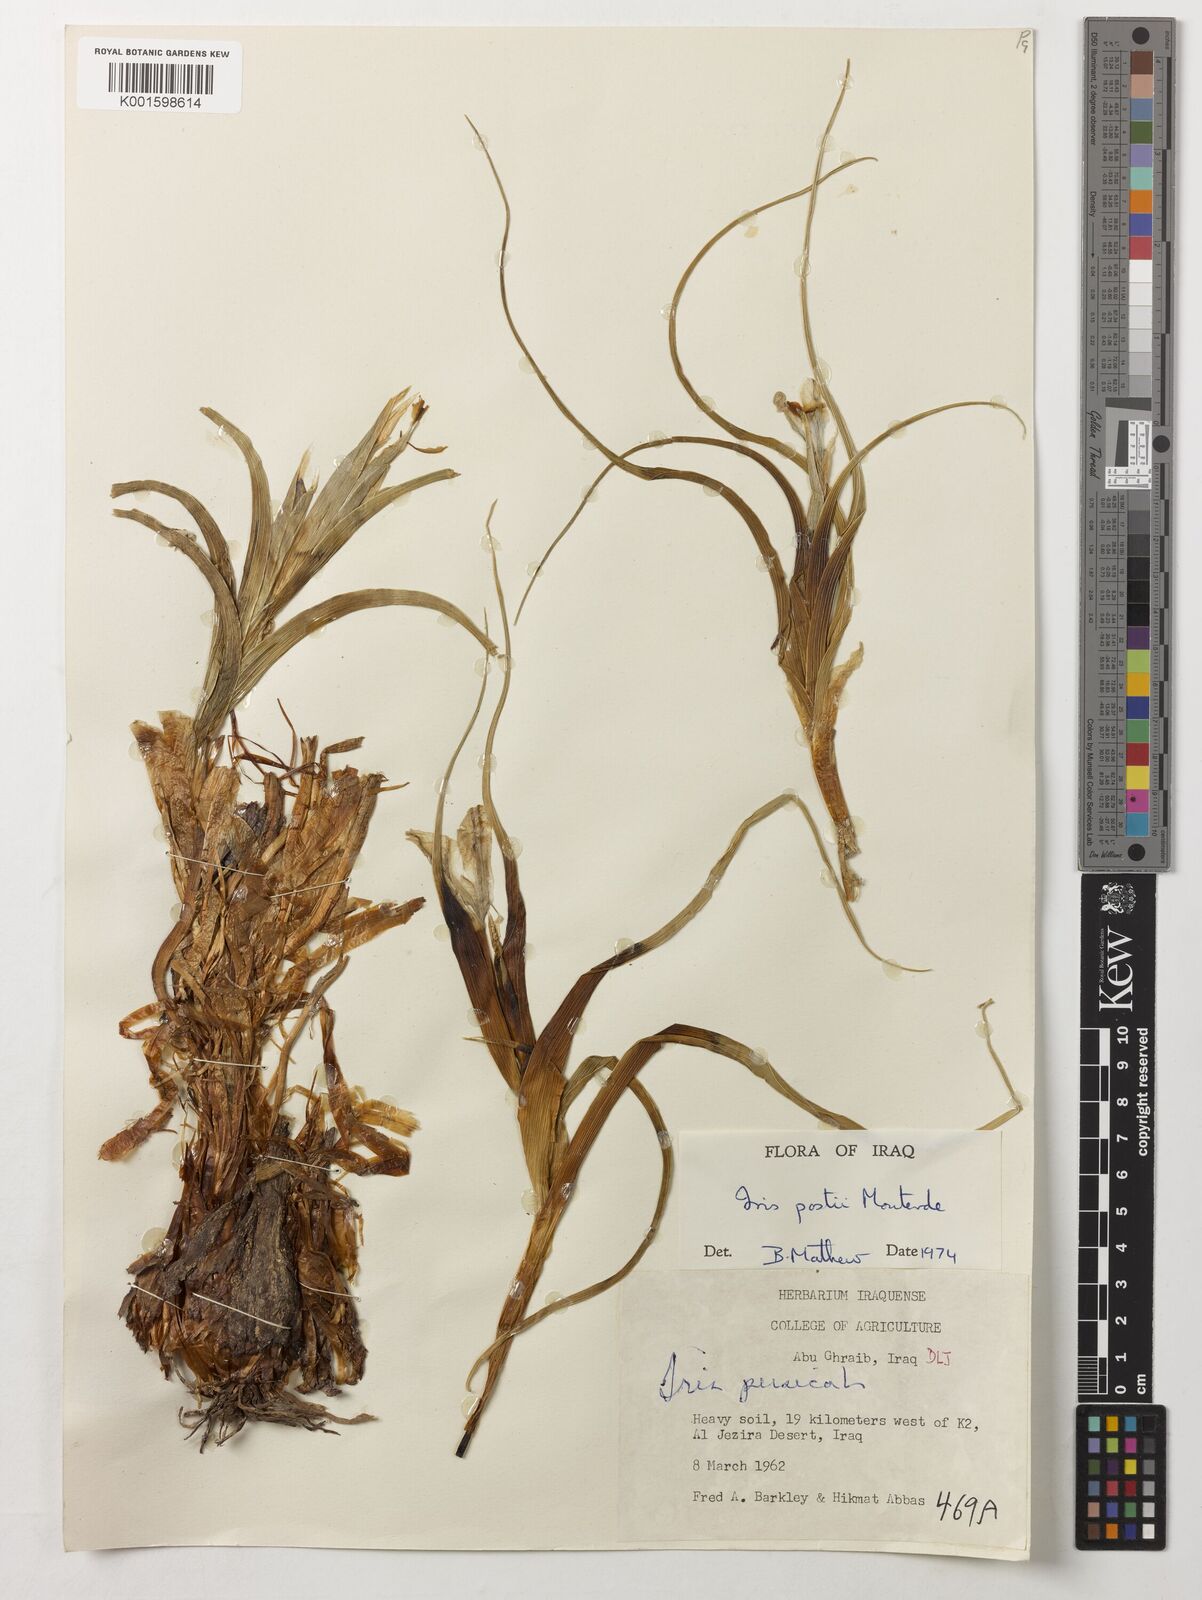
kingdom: Plantae
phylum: Tracheophyta
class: Liliopsida
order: Asparagales
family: Iridaceae
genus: Iris
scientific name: Iris postii
